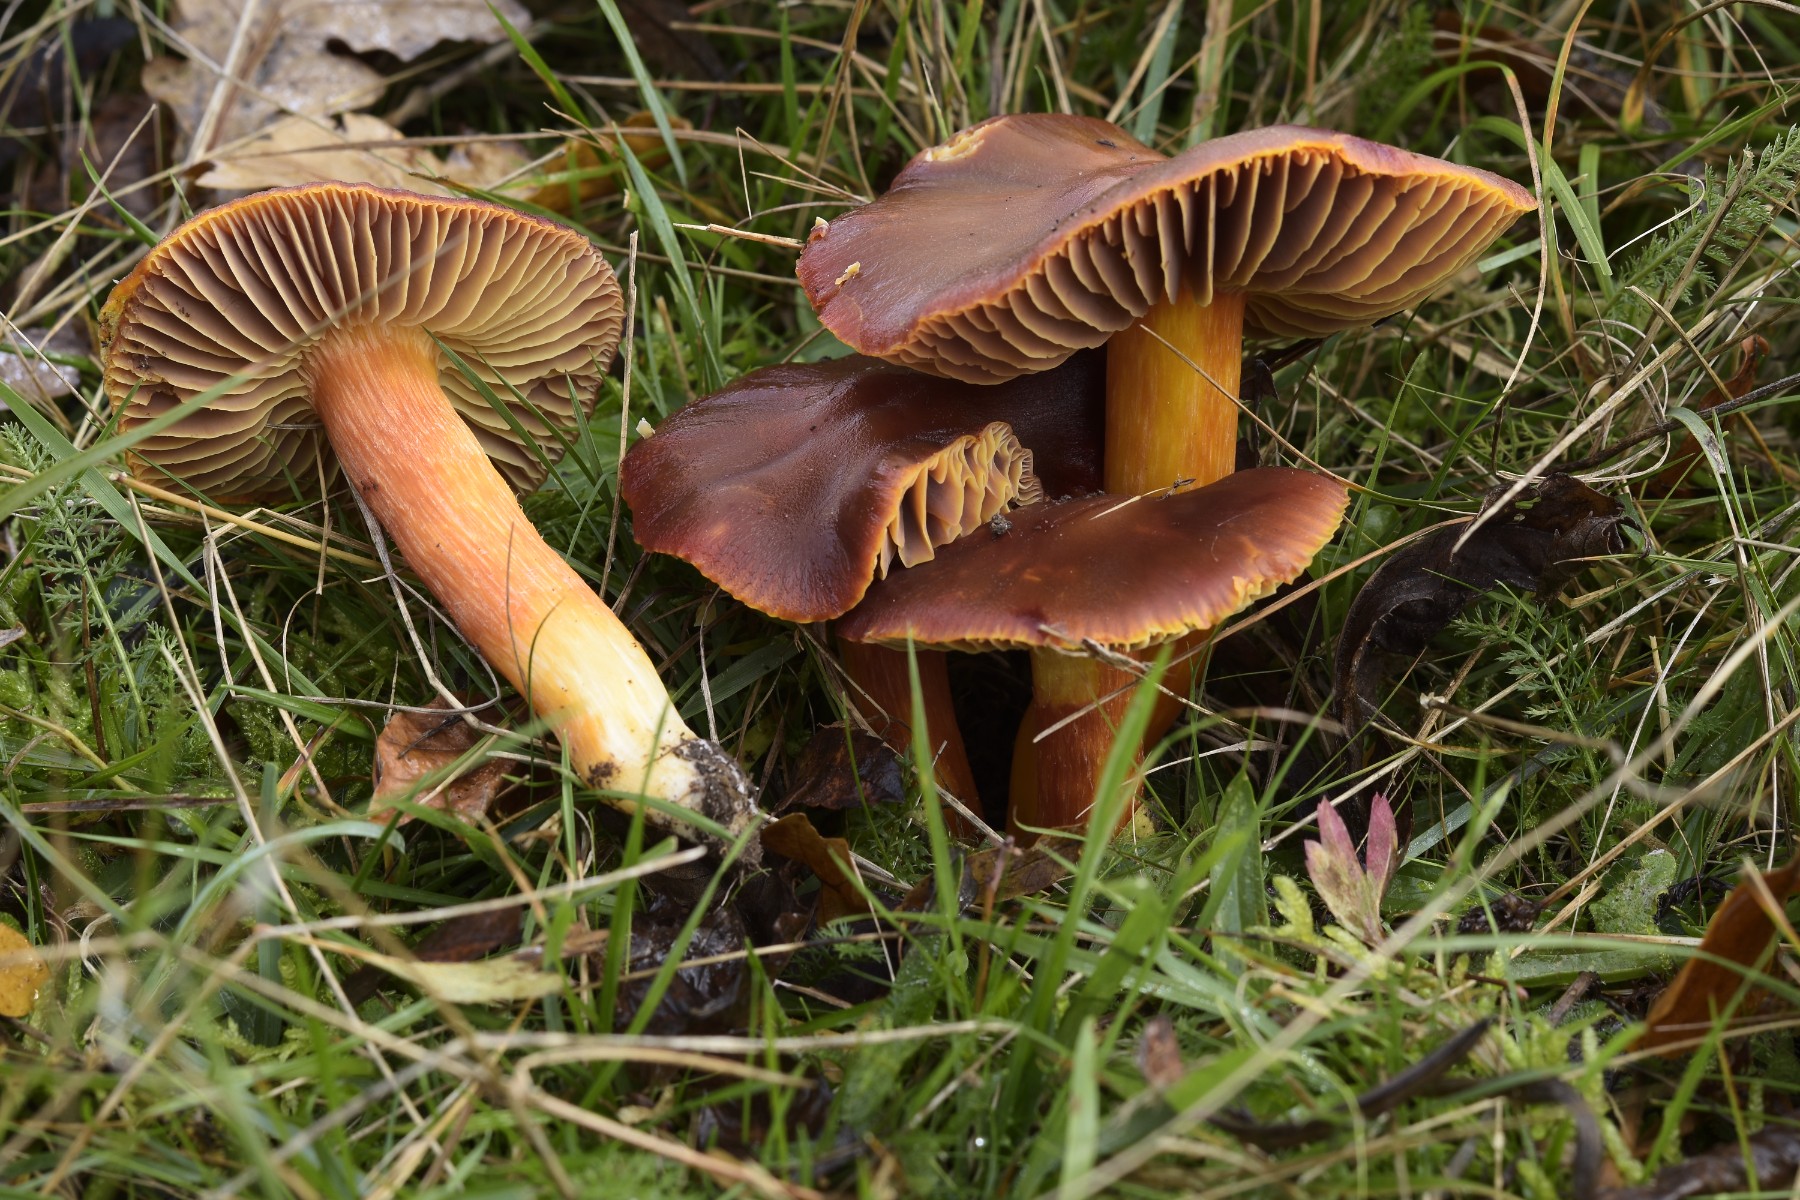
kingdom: Fungi
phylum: Basidiomycota
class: Agaricomycetes
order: Agaricales
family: Hygrophoraceae
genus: Hygrocybe
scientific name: Hygrocybe punicea
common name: skarlagen-vokshat
